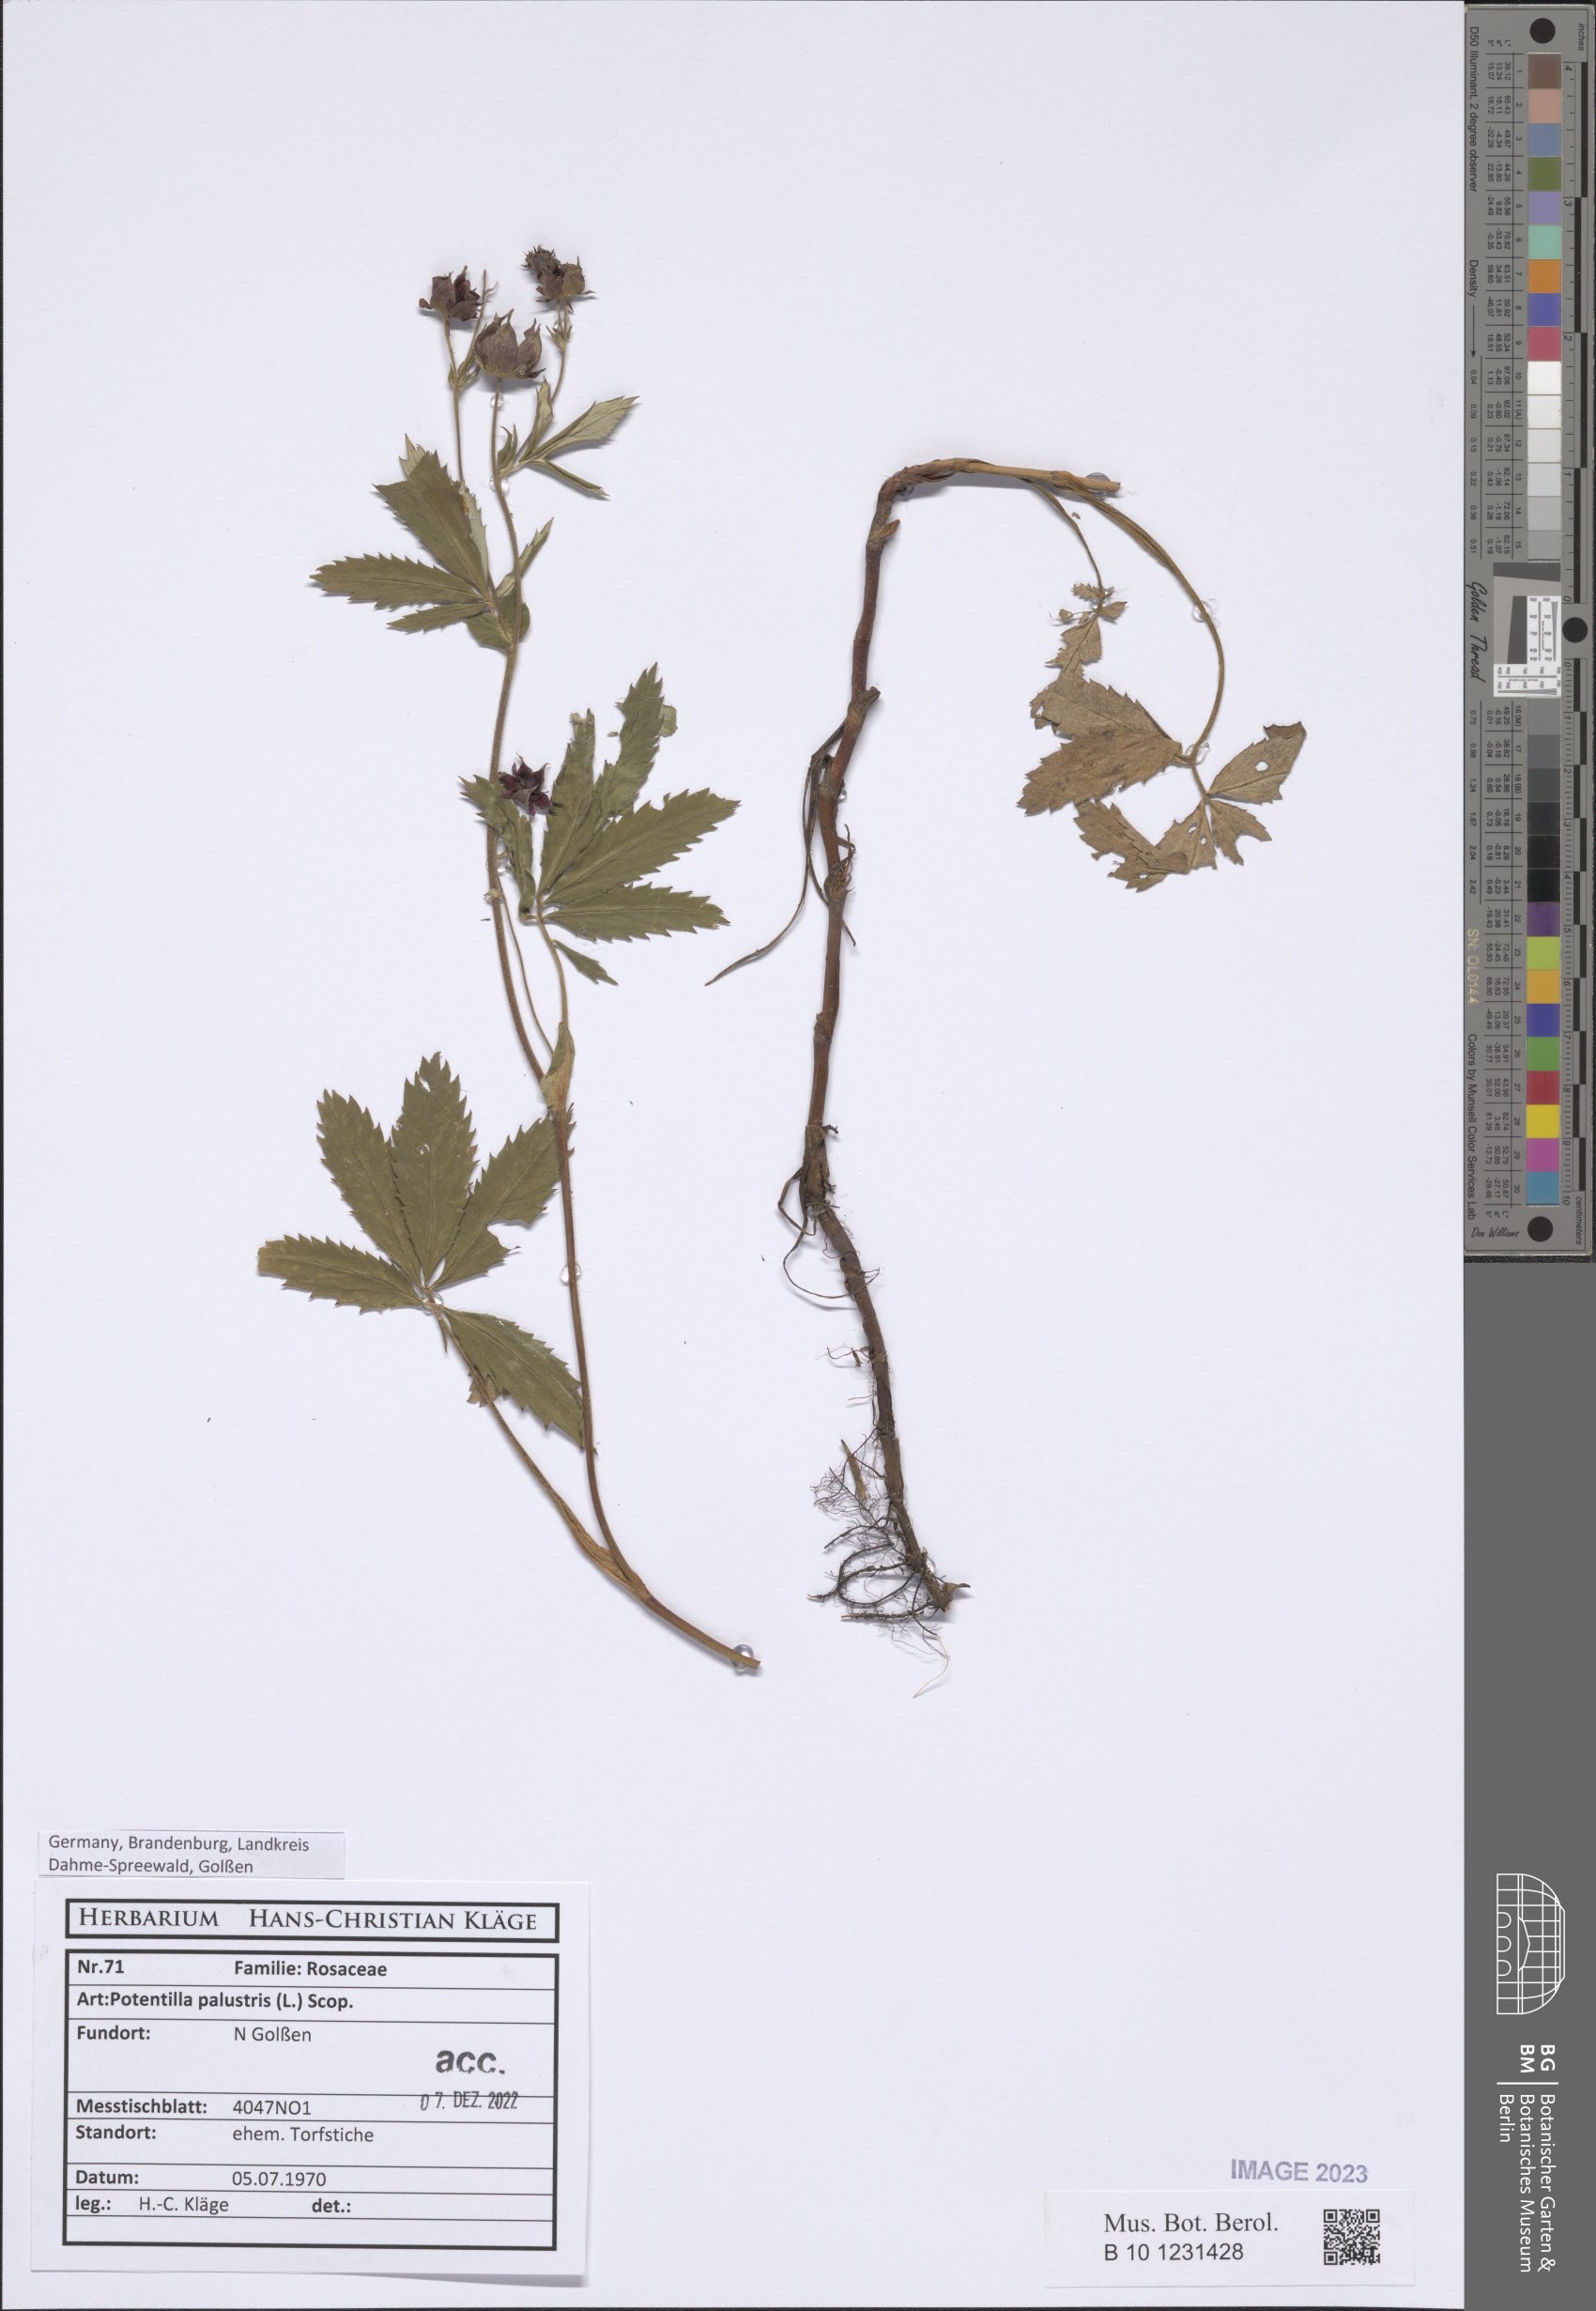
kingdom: Plantae
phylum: Tracheophyta
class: Magnoliopsida
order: Rosales
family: Rosaceae
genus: Comarum
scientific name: Comarum palustre
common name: Marsh cinquefoil
